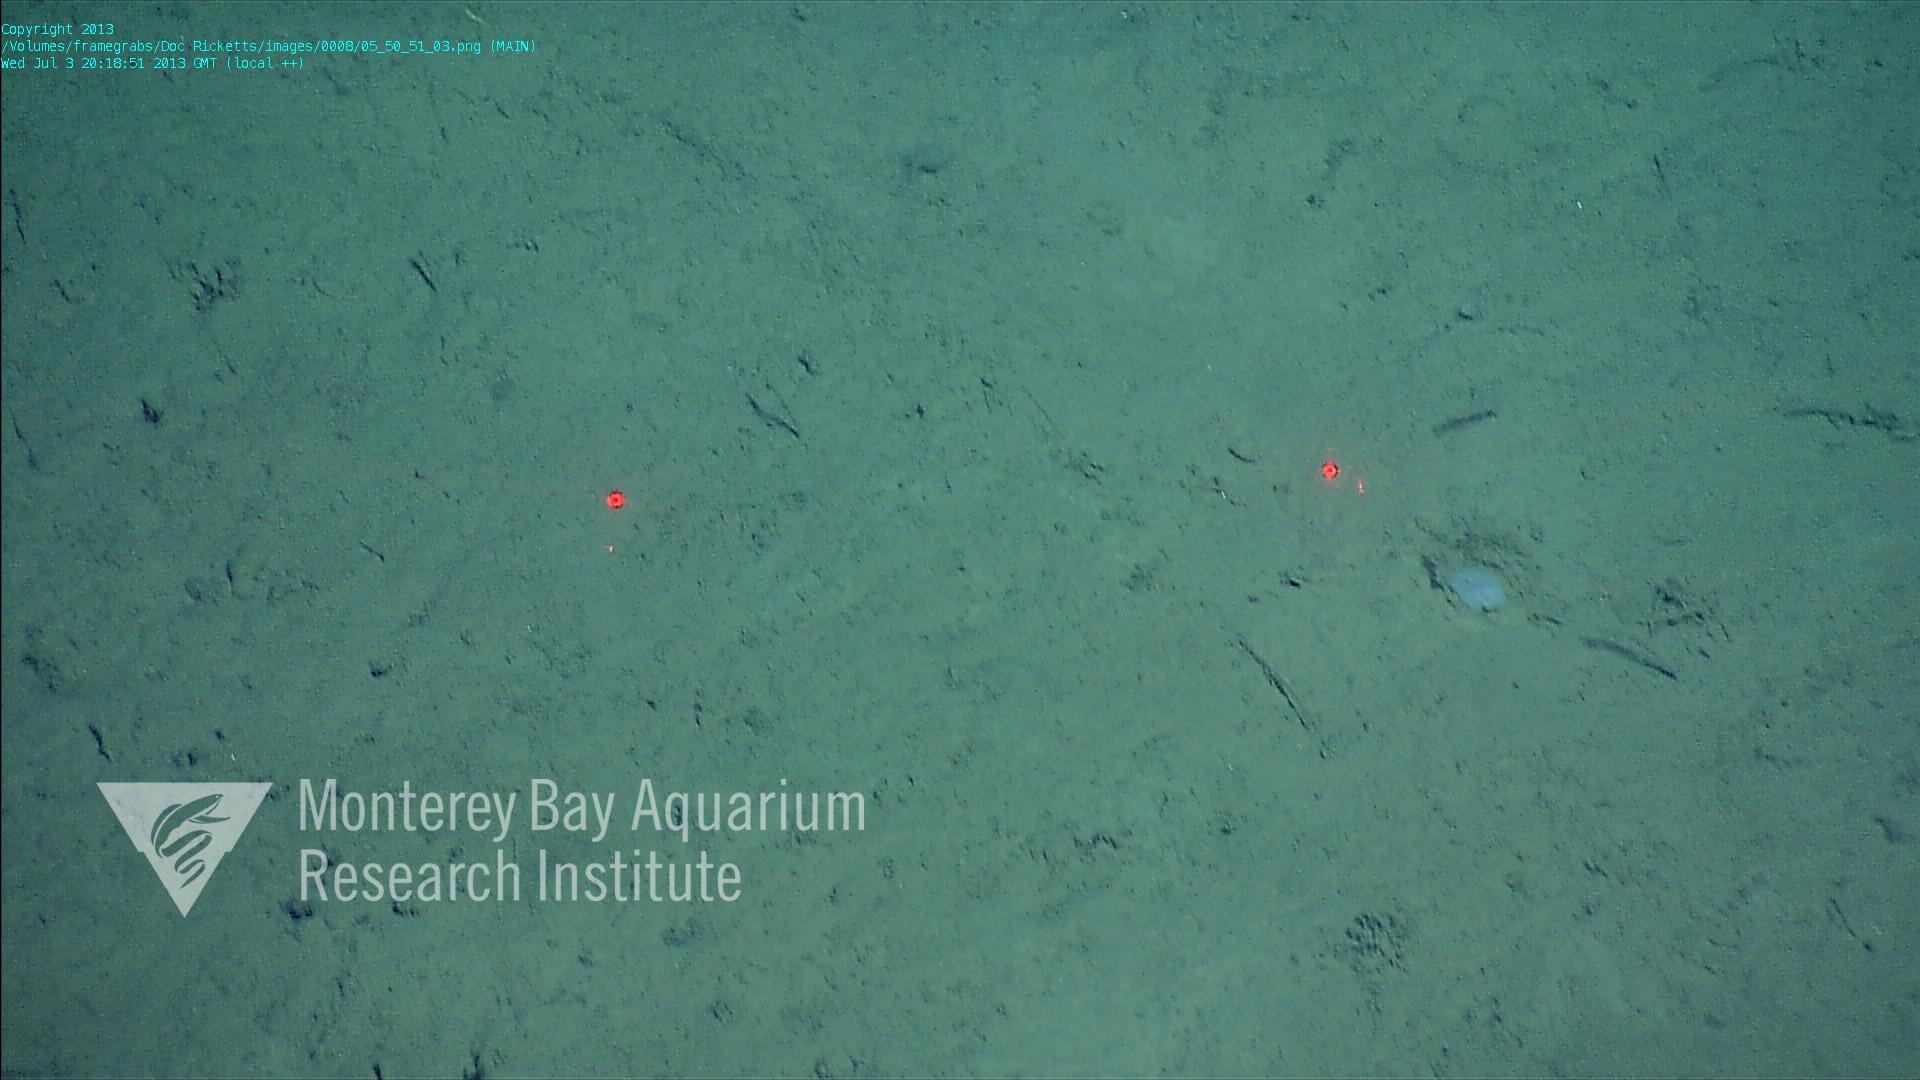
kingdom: Animalia
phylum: Porifera
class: Hexactinellida
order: Lyssacinosida
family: Euplectellidae
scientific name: Euplectellidae
